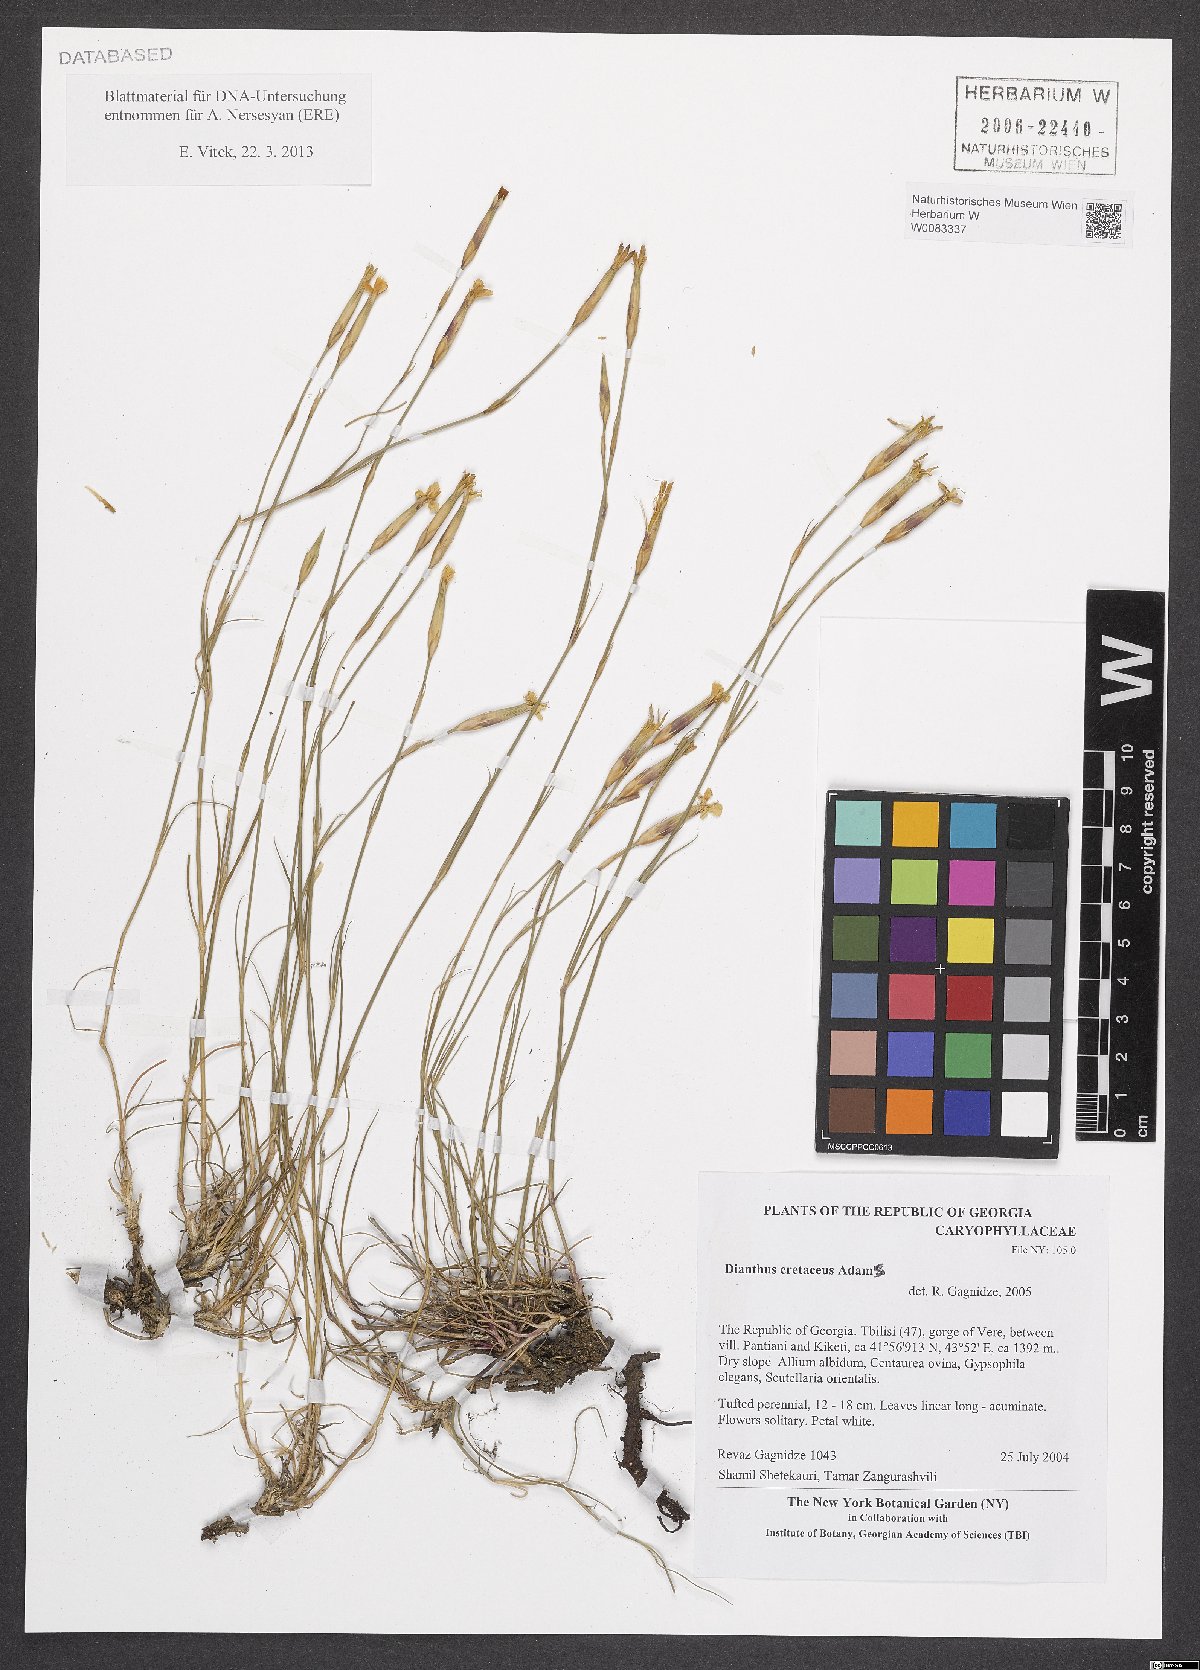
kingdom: Plantae
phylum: Tracheophyta
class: Magnoliopsida
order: Caryophyllales
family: Caryophyllaceae
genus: Dianthus
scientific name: Dianthus cretaceus
